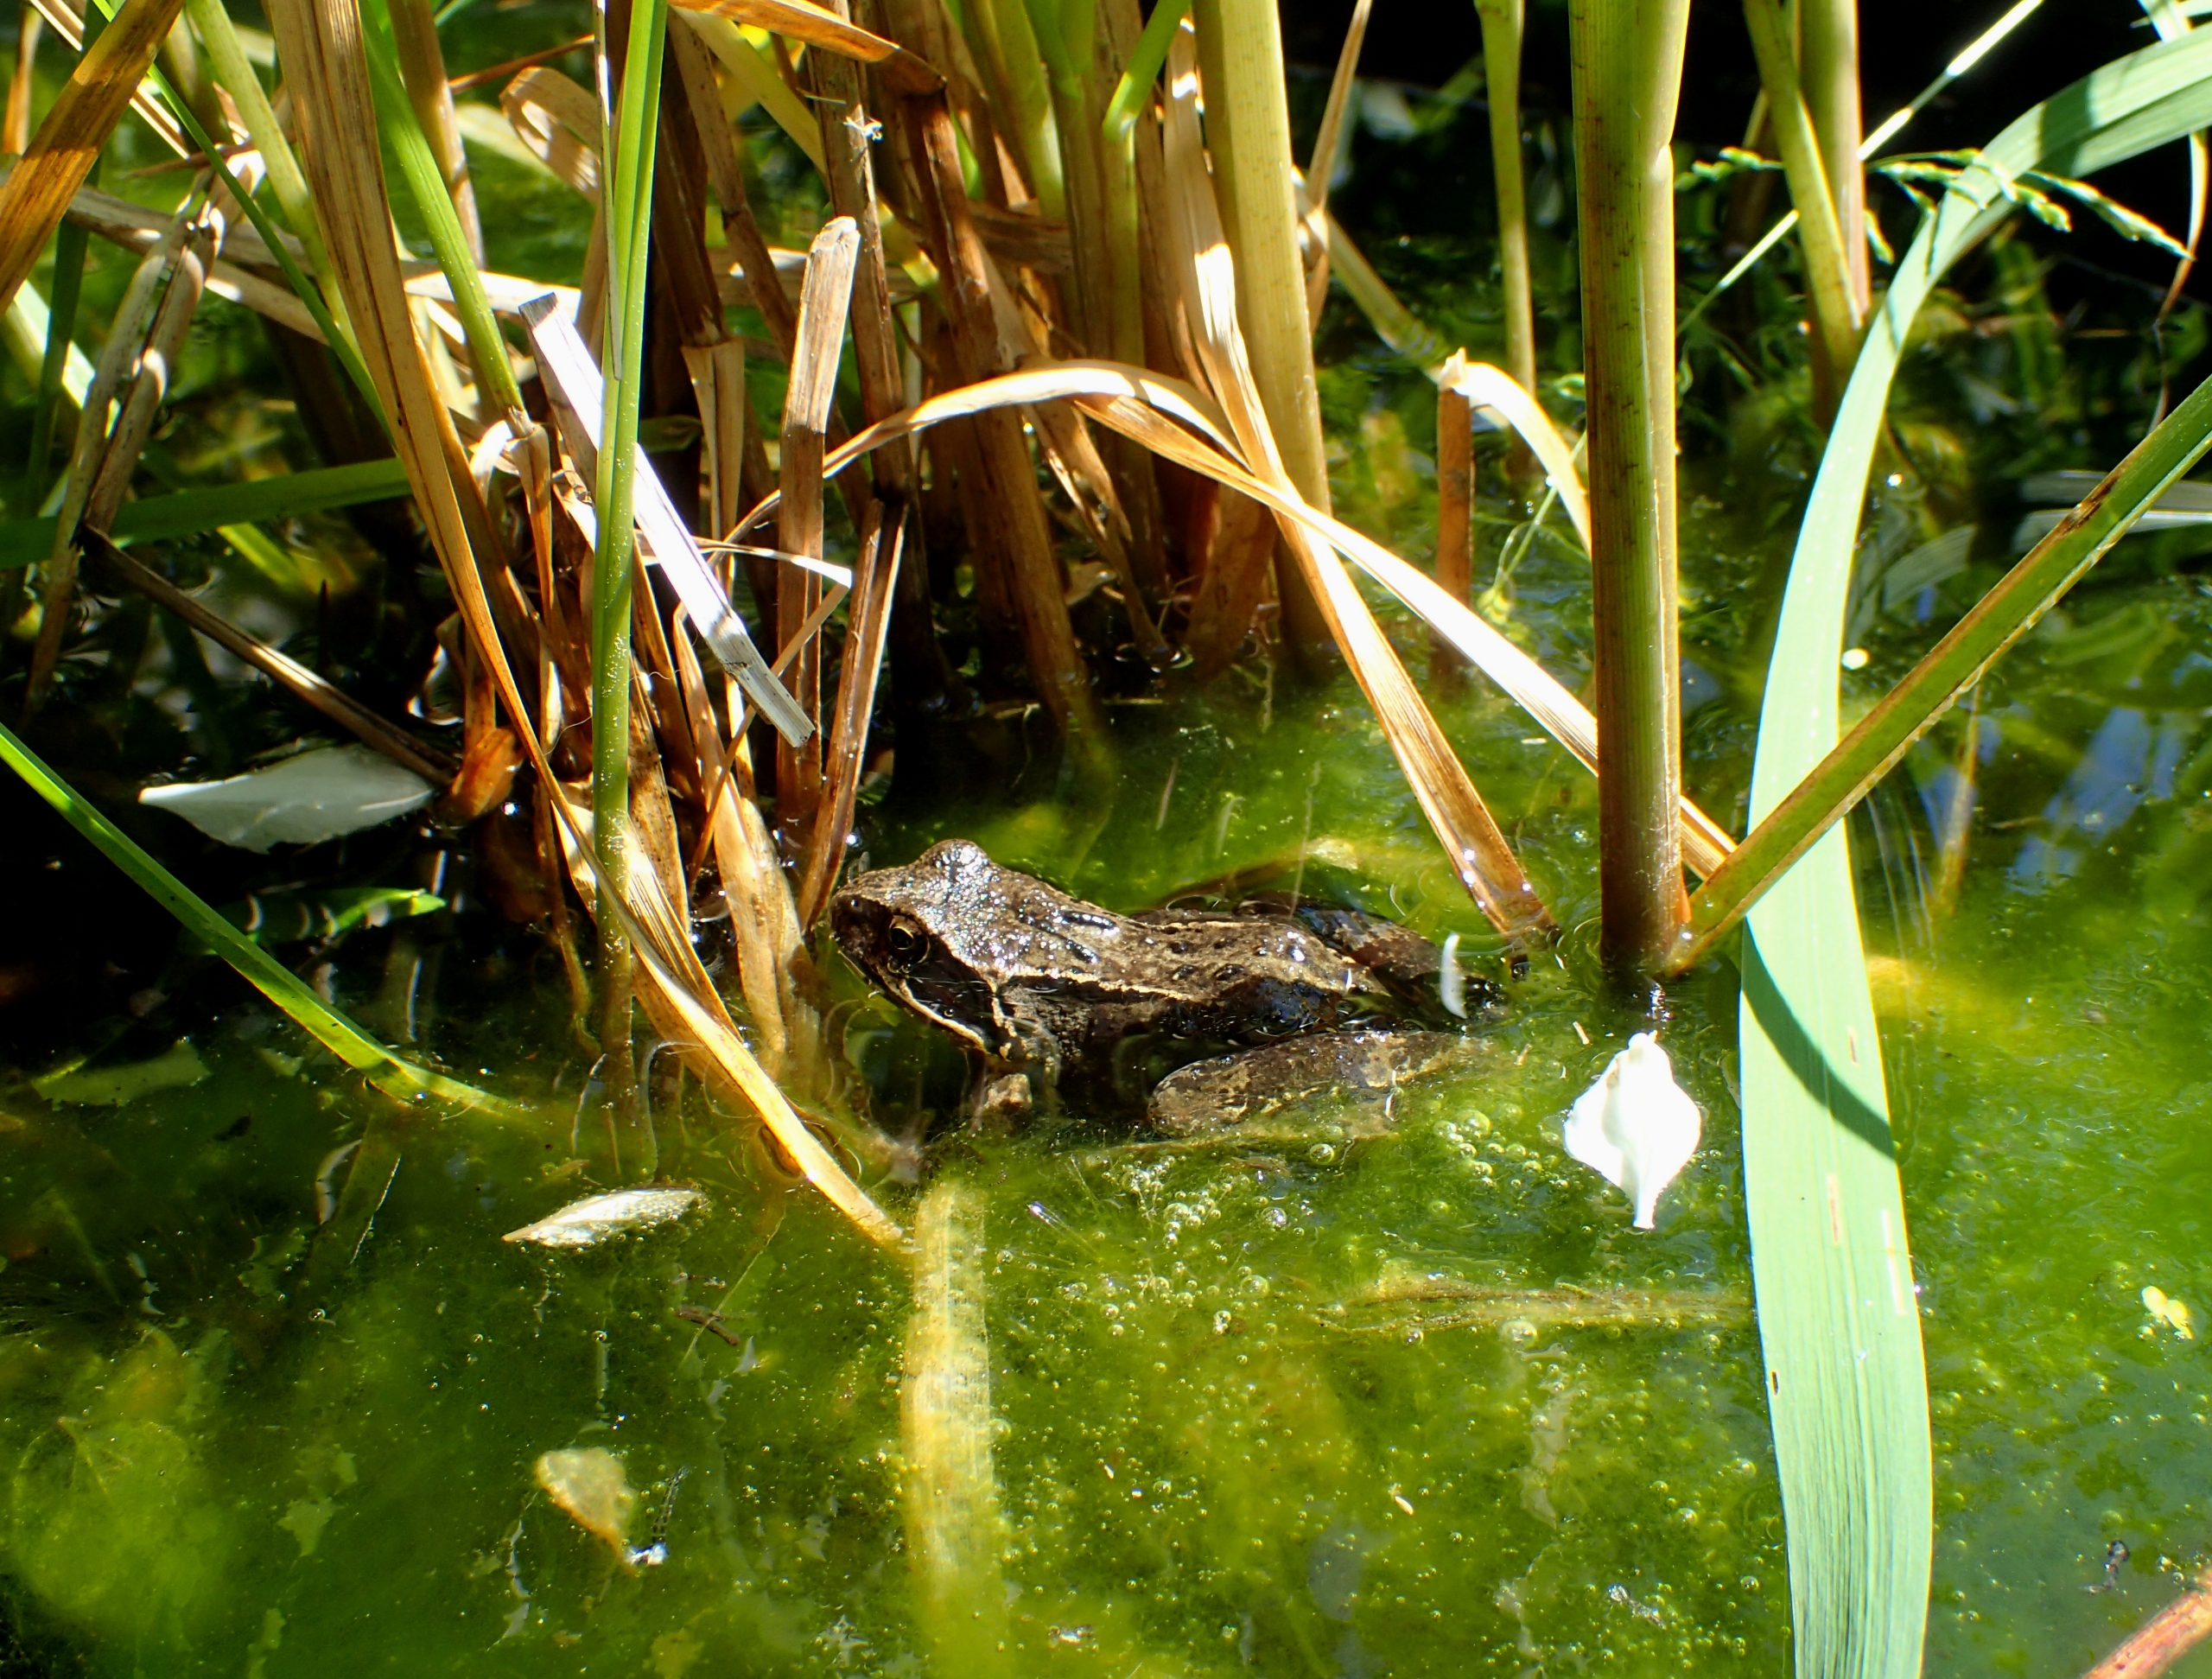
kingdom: Animalia
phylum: Chordata
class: Amphibia
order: Anura
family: Ranidae
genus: Rana
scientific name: Rana temporaria
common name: Butsnudet frø
